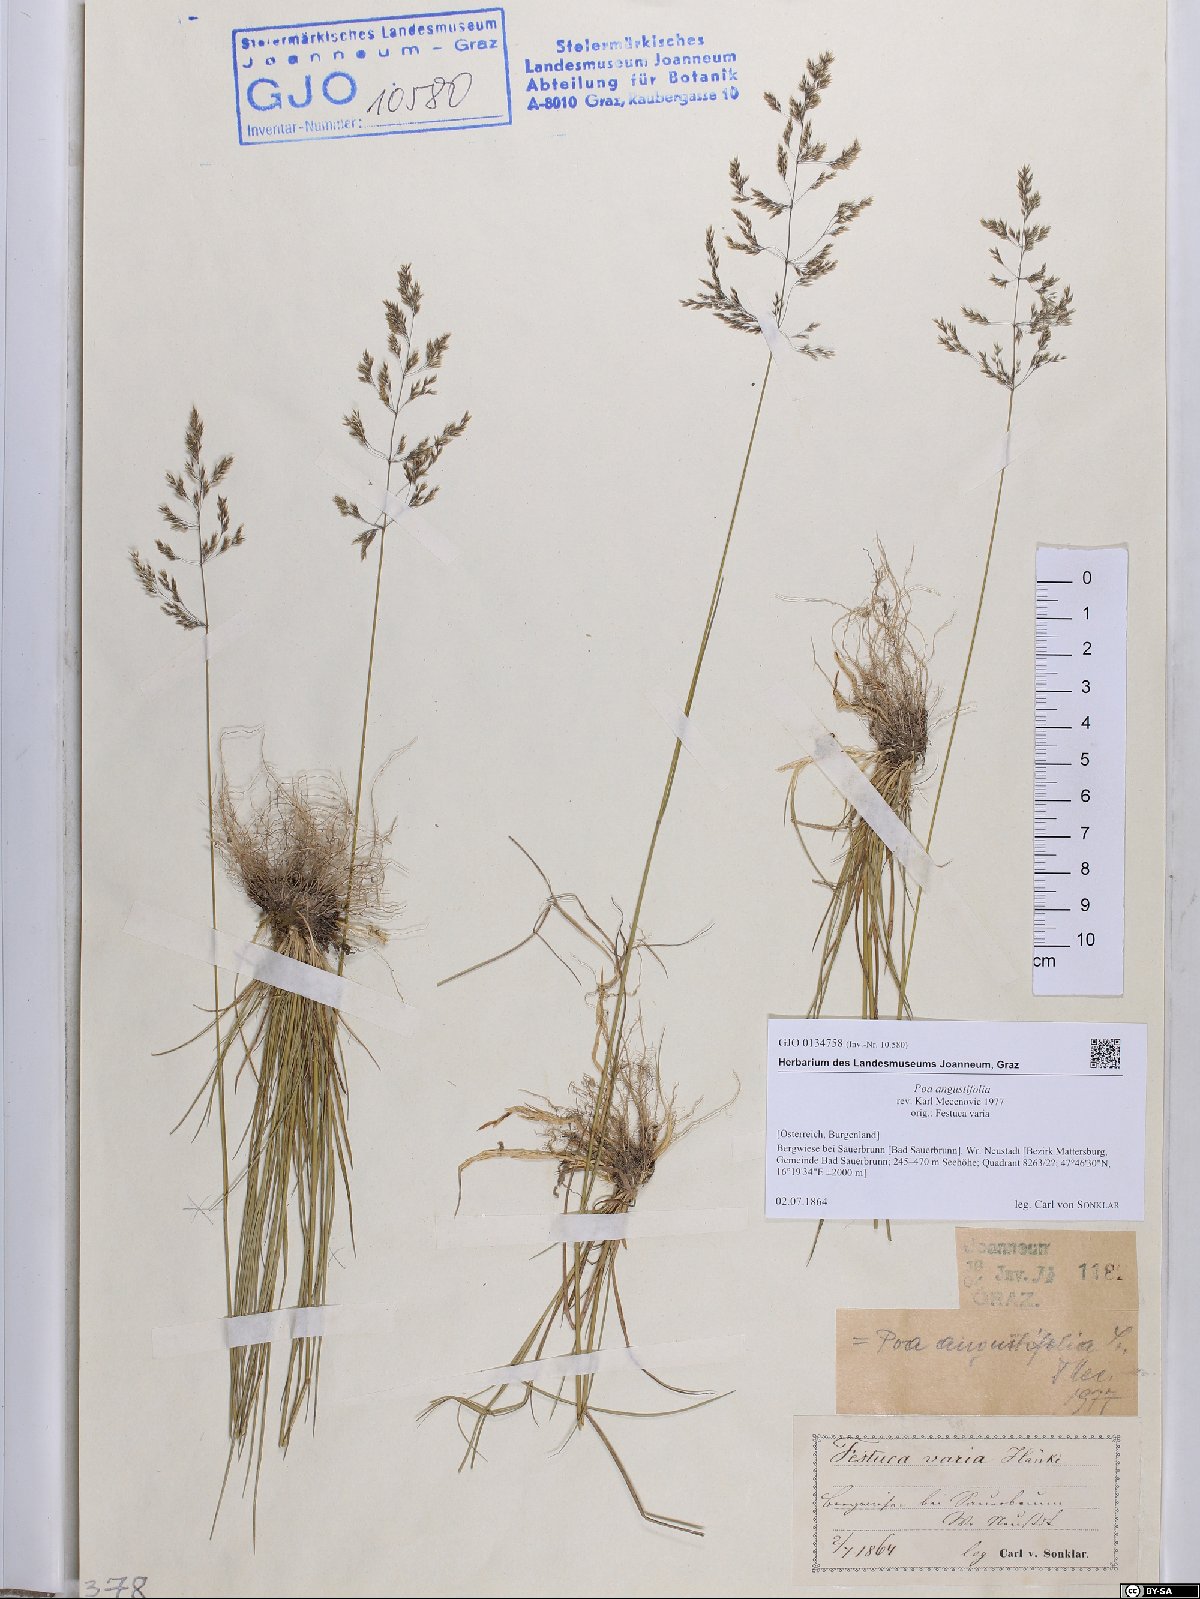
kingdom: Plantae
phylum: Tracheophyta
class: Liliopsida
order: Poales
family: Poaceae
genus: Poa
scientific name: Poa angustifolia
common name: Narrow-leaved meadow-grass
